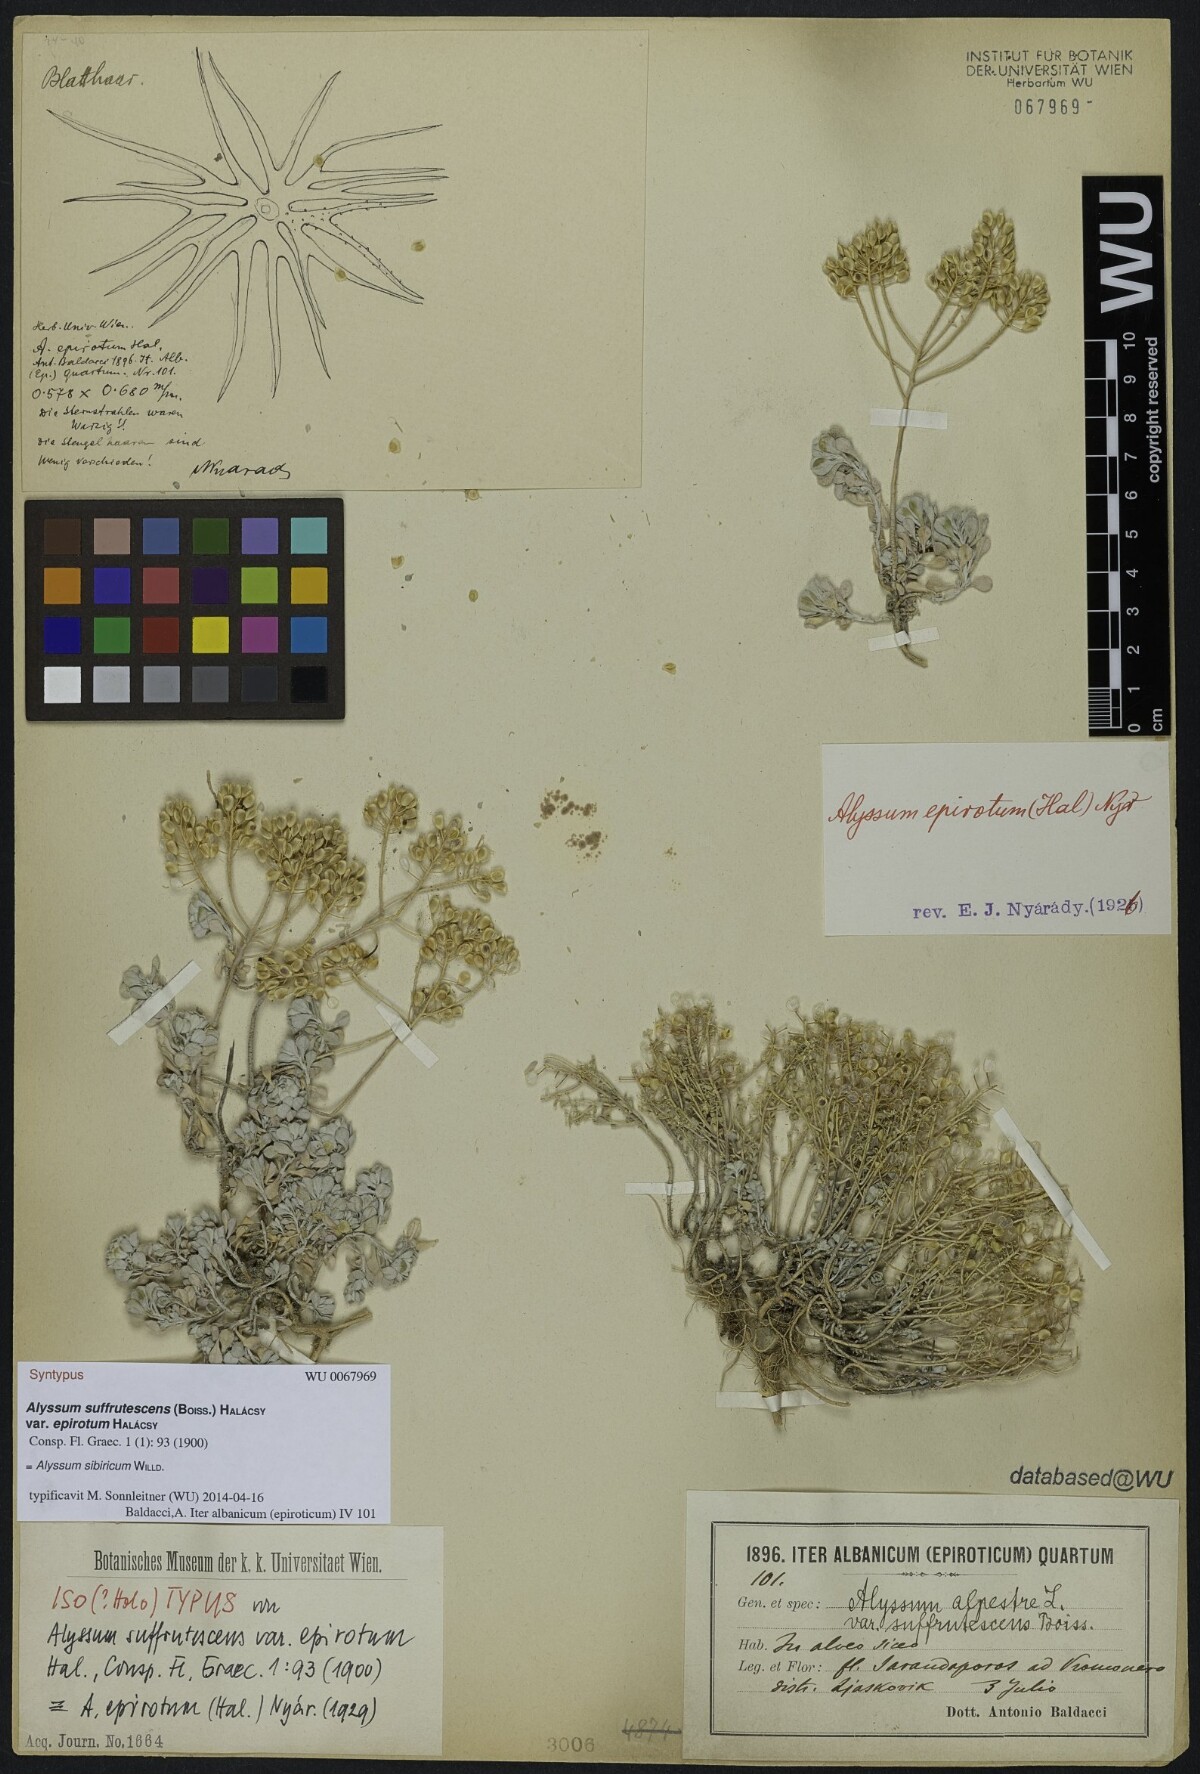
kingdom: Plantae
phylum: Tracheophyta
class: Magnoliopsida
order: Brassicales
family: Brassicaceae
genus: Odontarrhena
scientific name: Odontarrhena sibirica
